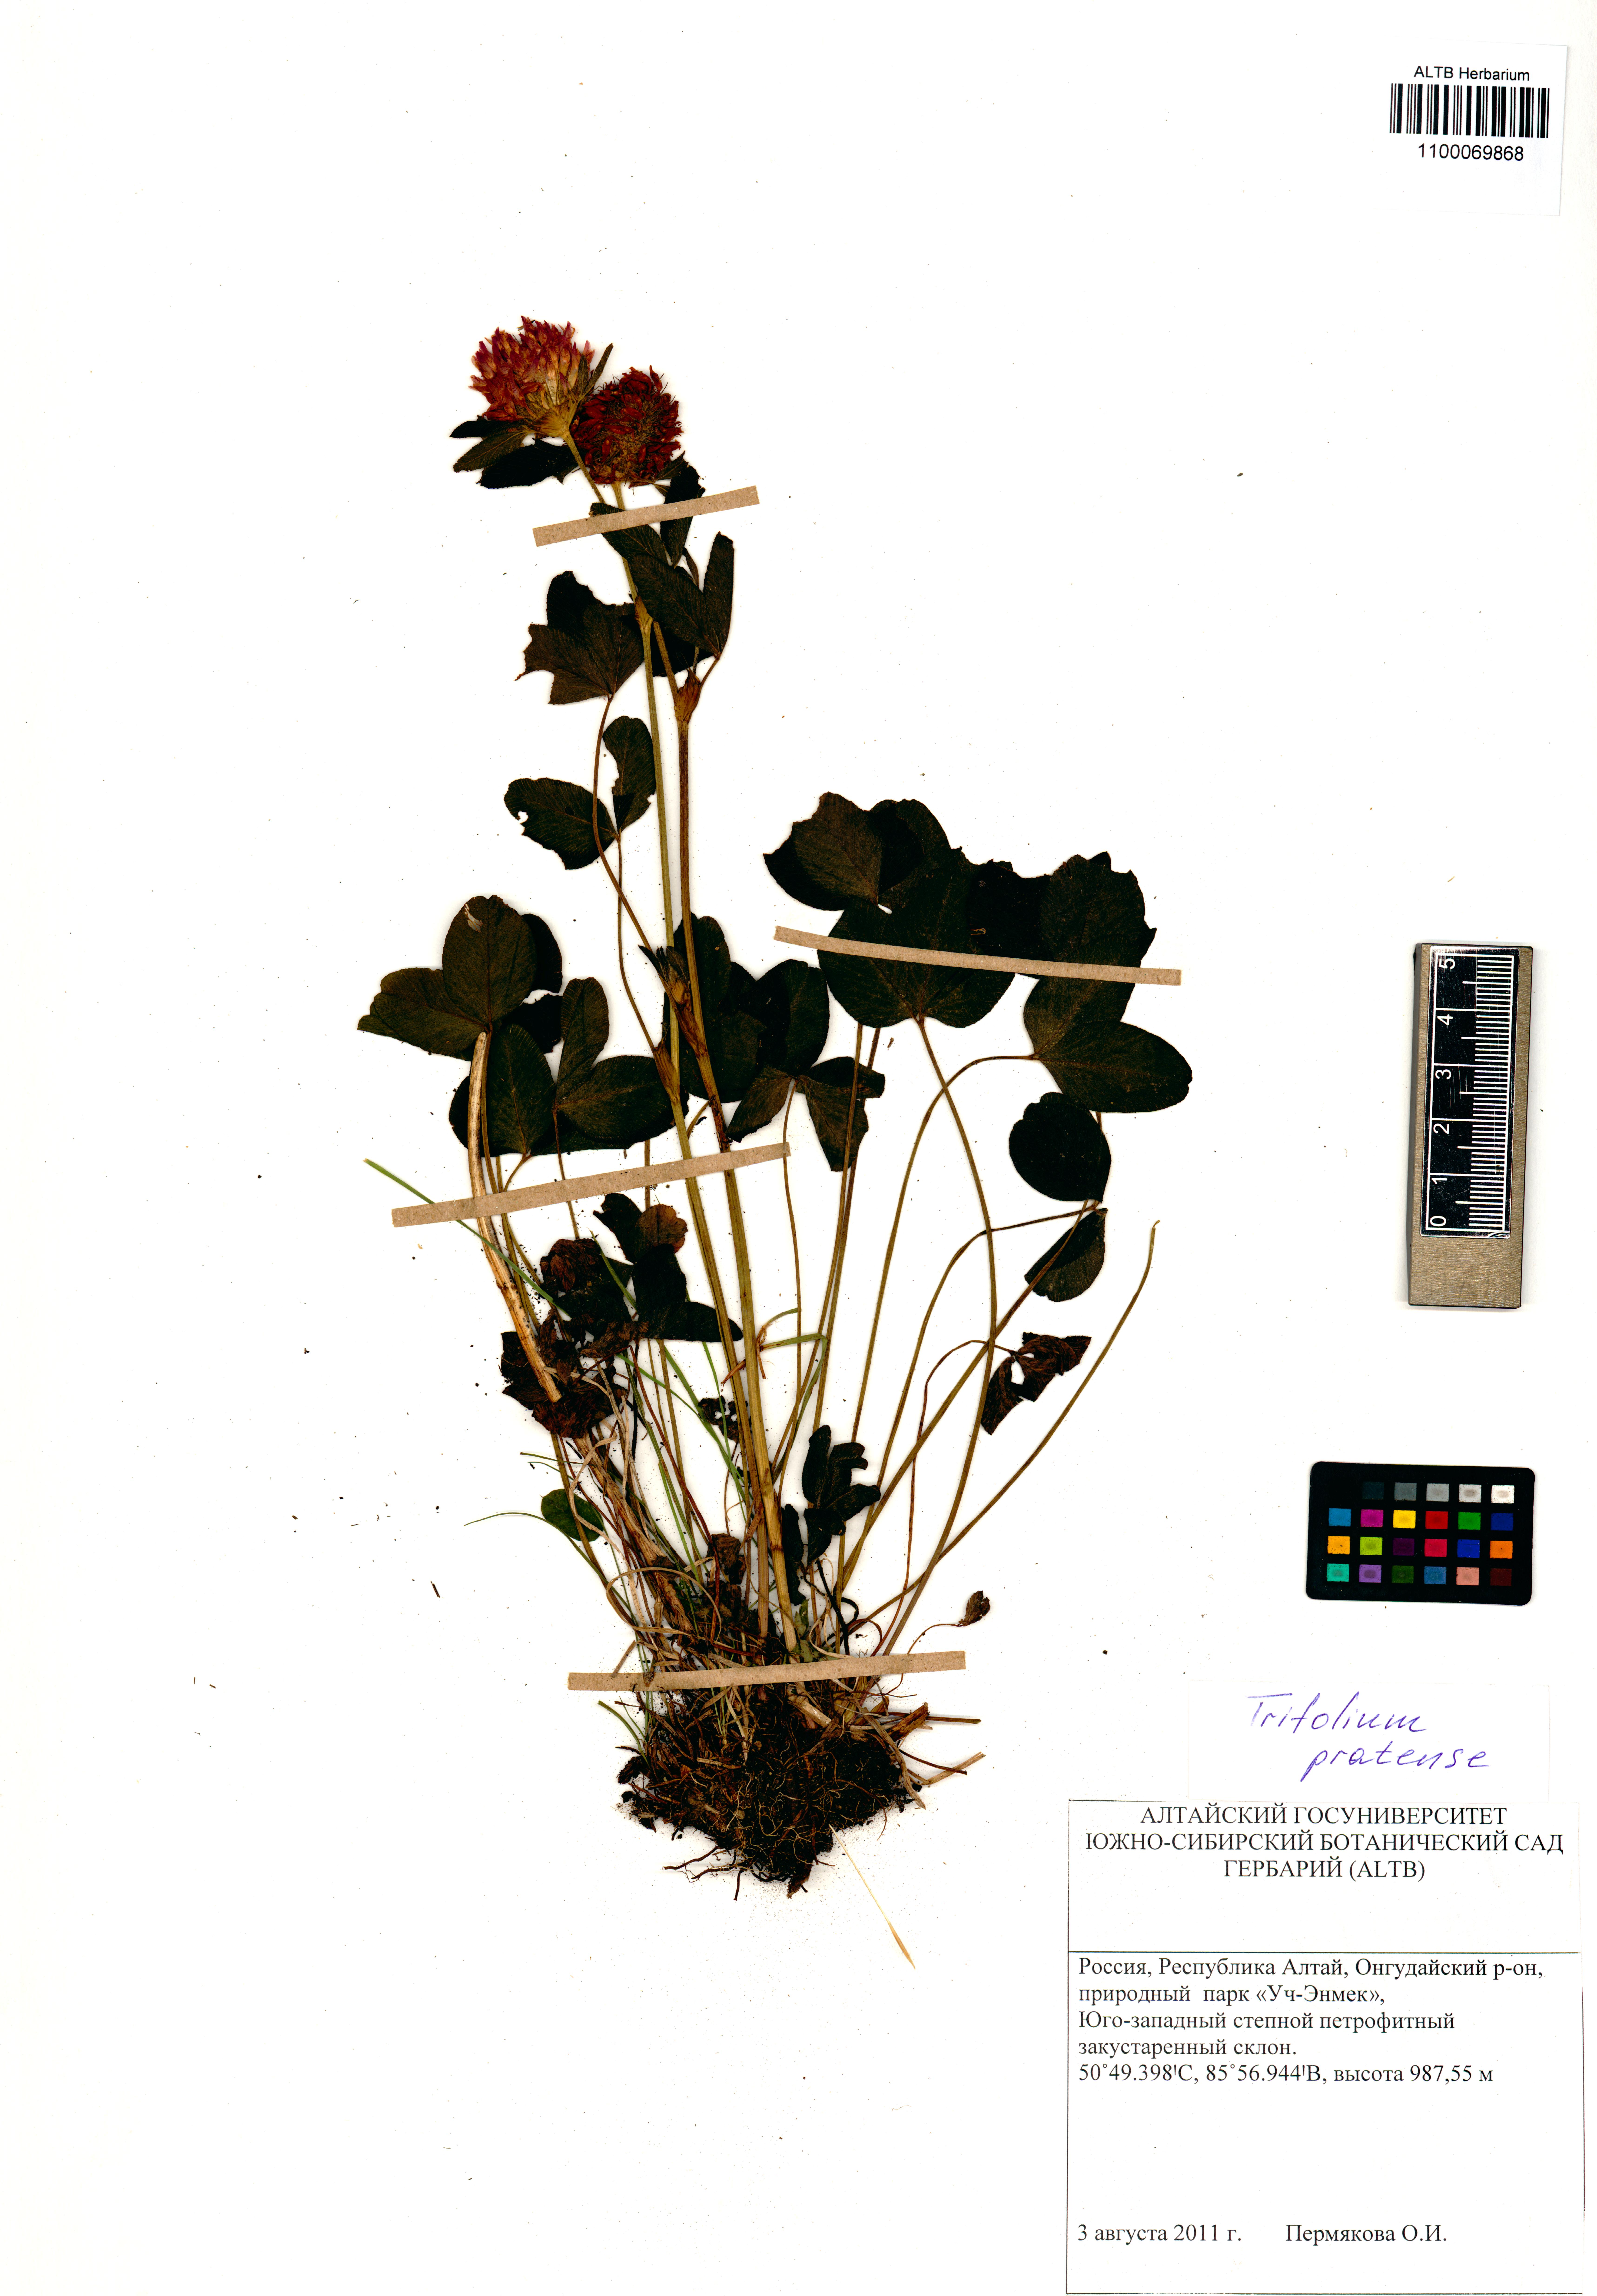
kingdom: Plantae
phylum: Tracheophyta
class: Magnoliopsida
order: Fabales
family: Fabaceae
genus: Trifolium
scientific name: Trifolium pratense
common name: Red clover
